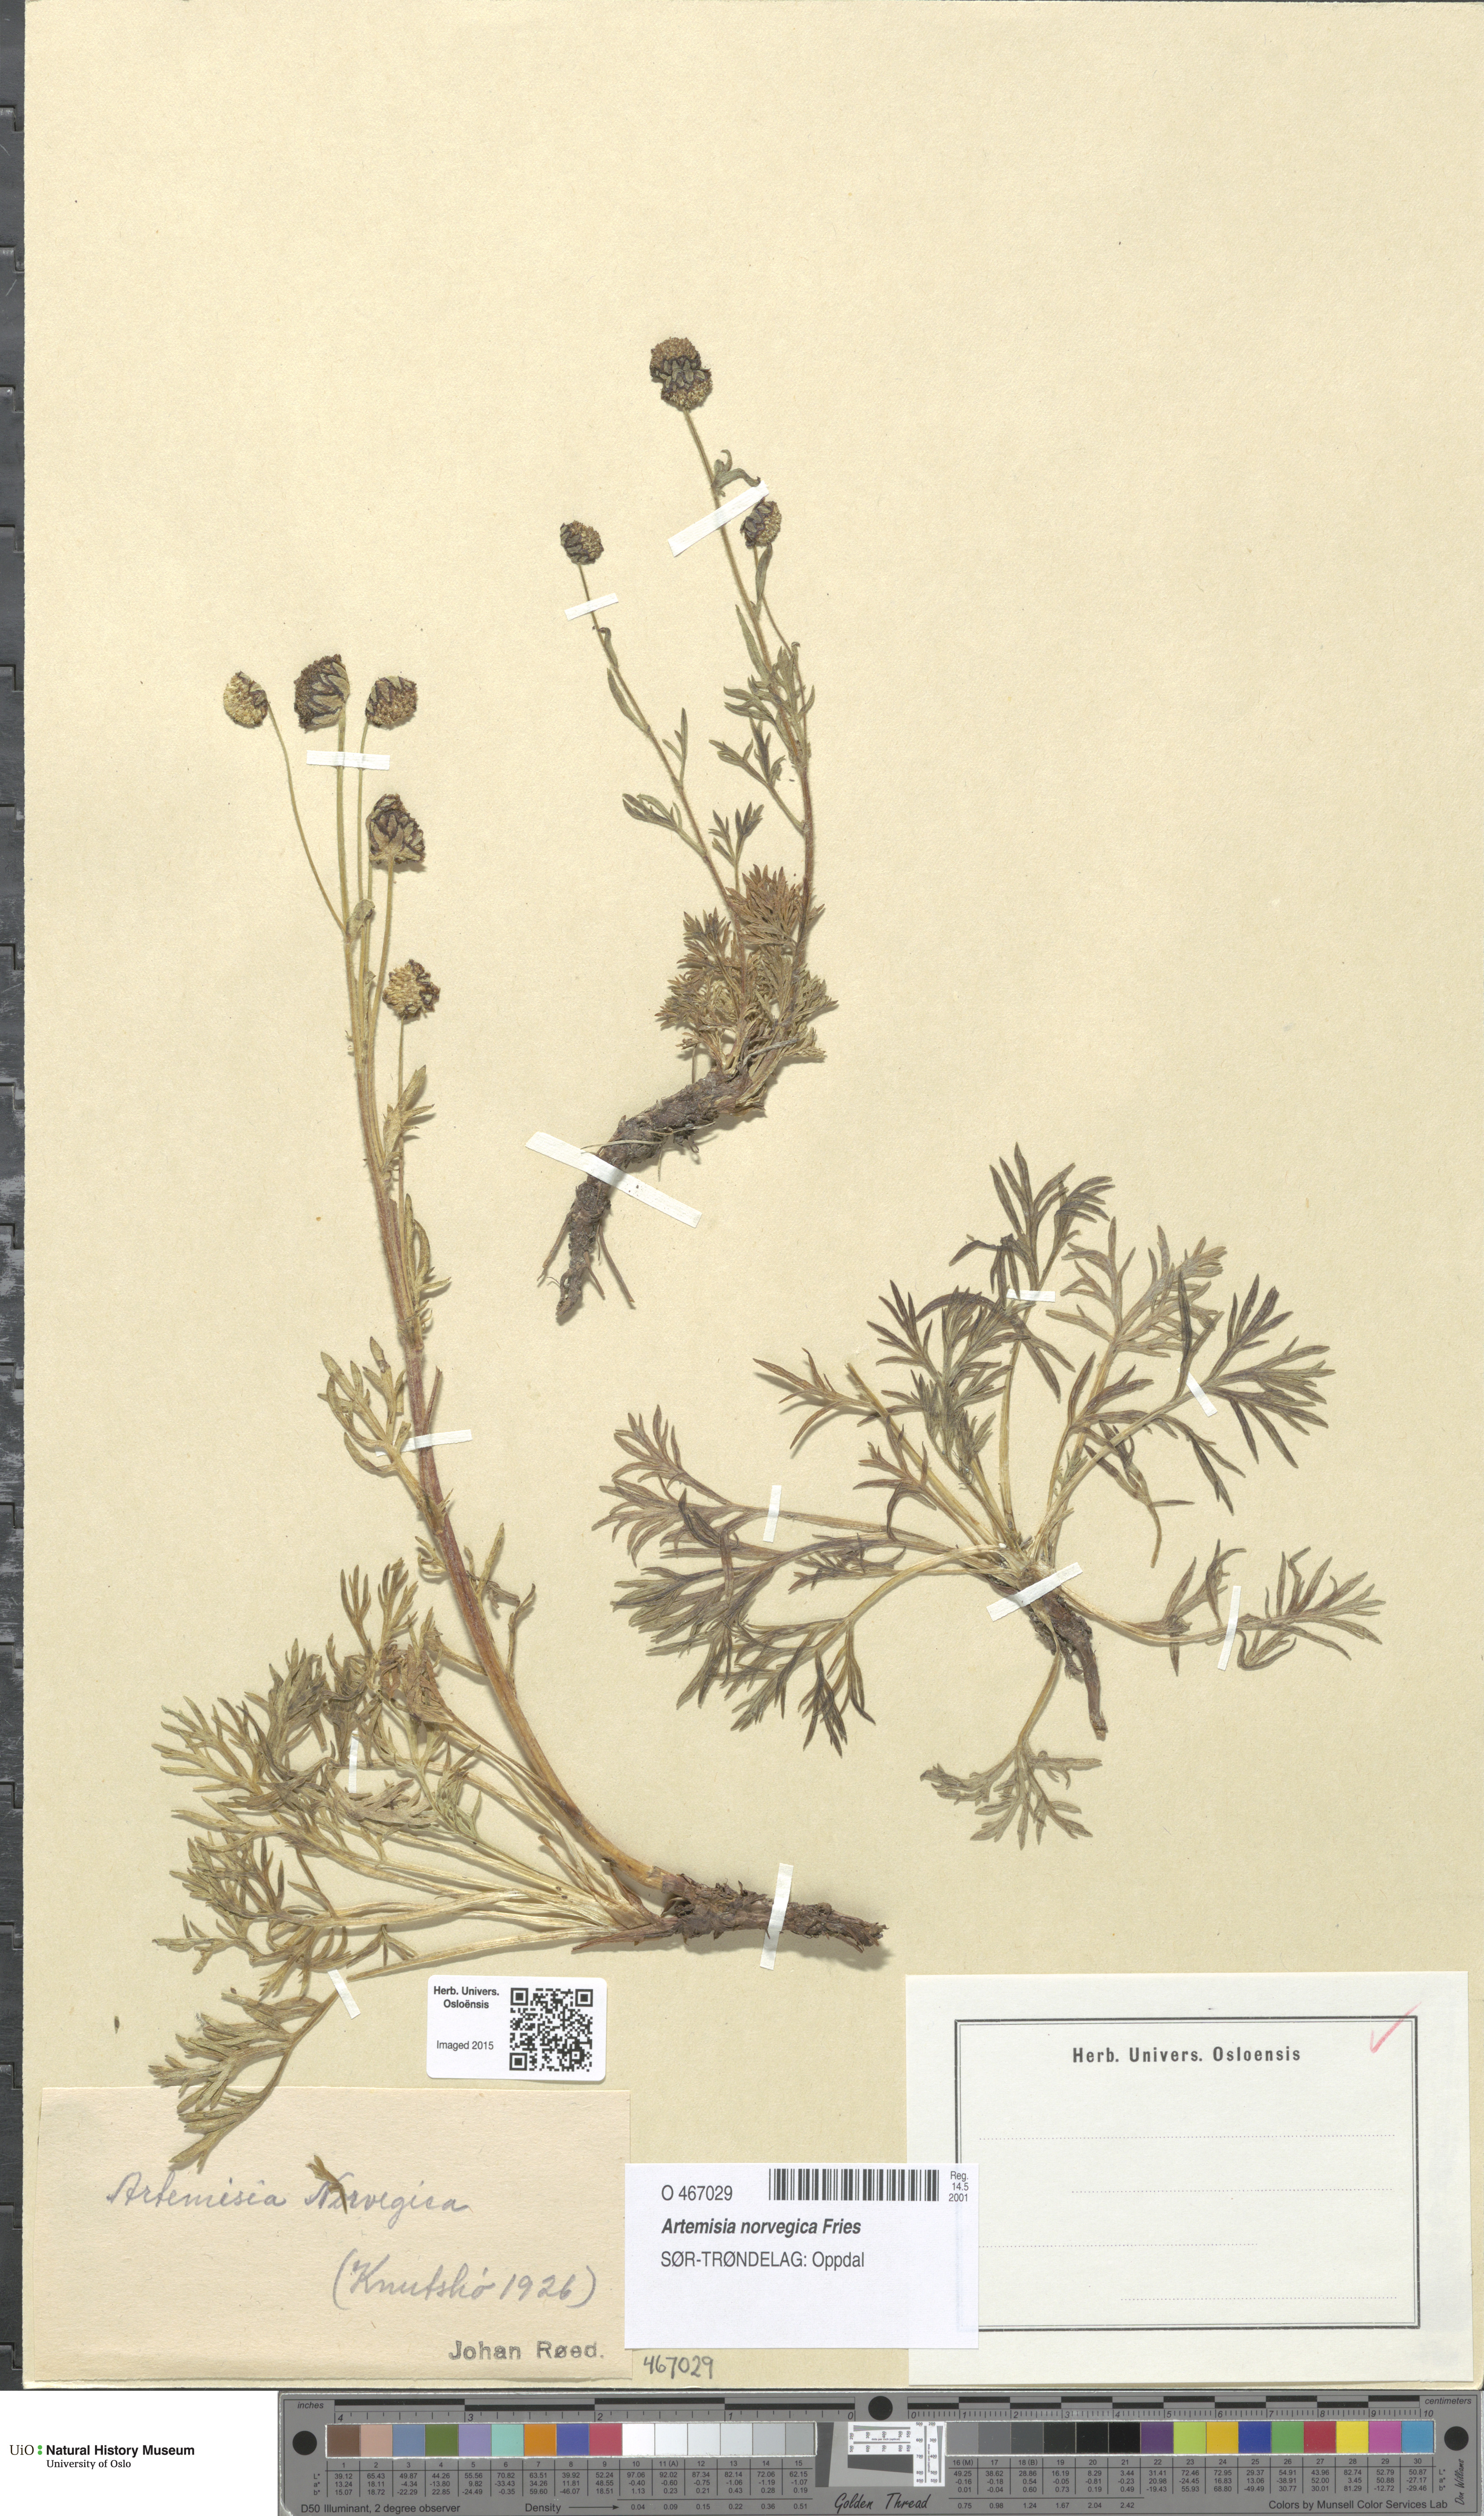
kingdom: Plantae
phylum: Tracheophyta
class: Magnoliopsida
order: Asterales
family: Asteraceae
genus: Artemisia
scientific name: Artemisia norvegica
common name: Norwegian mugwort
